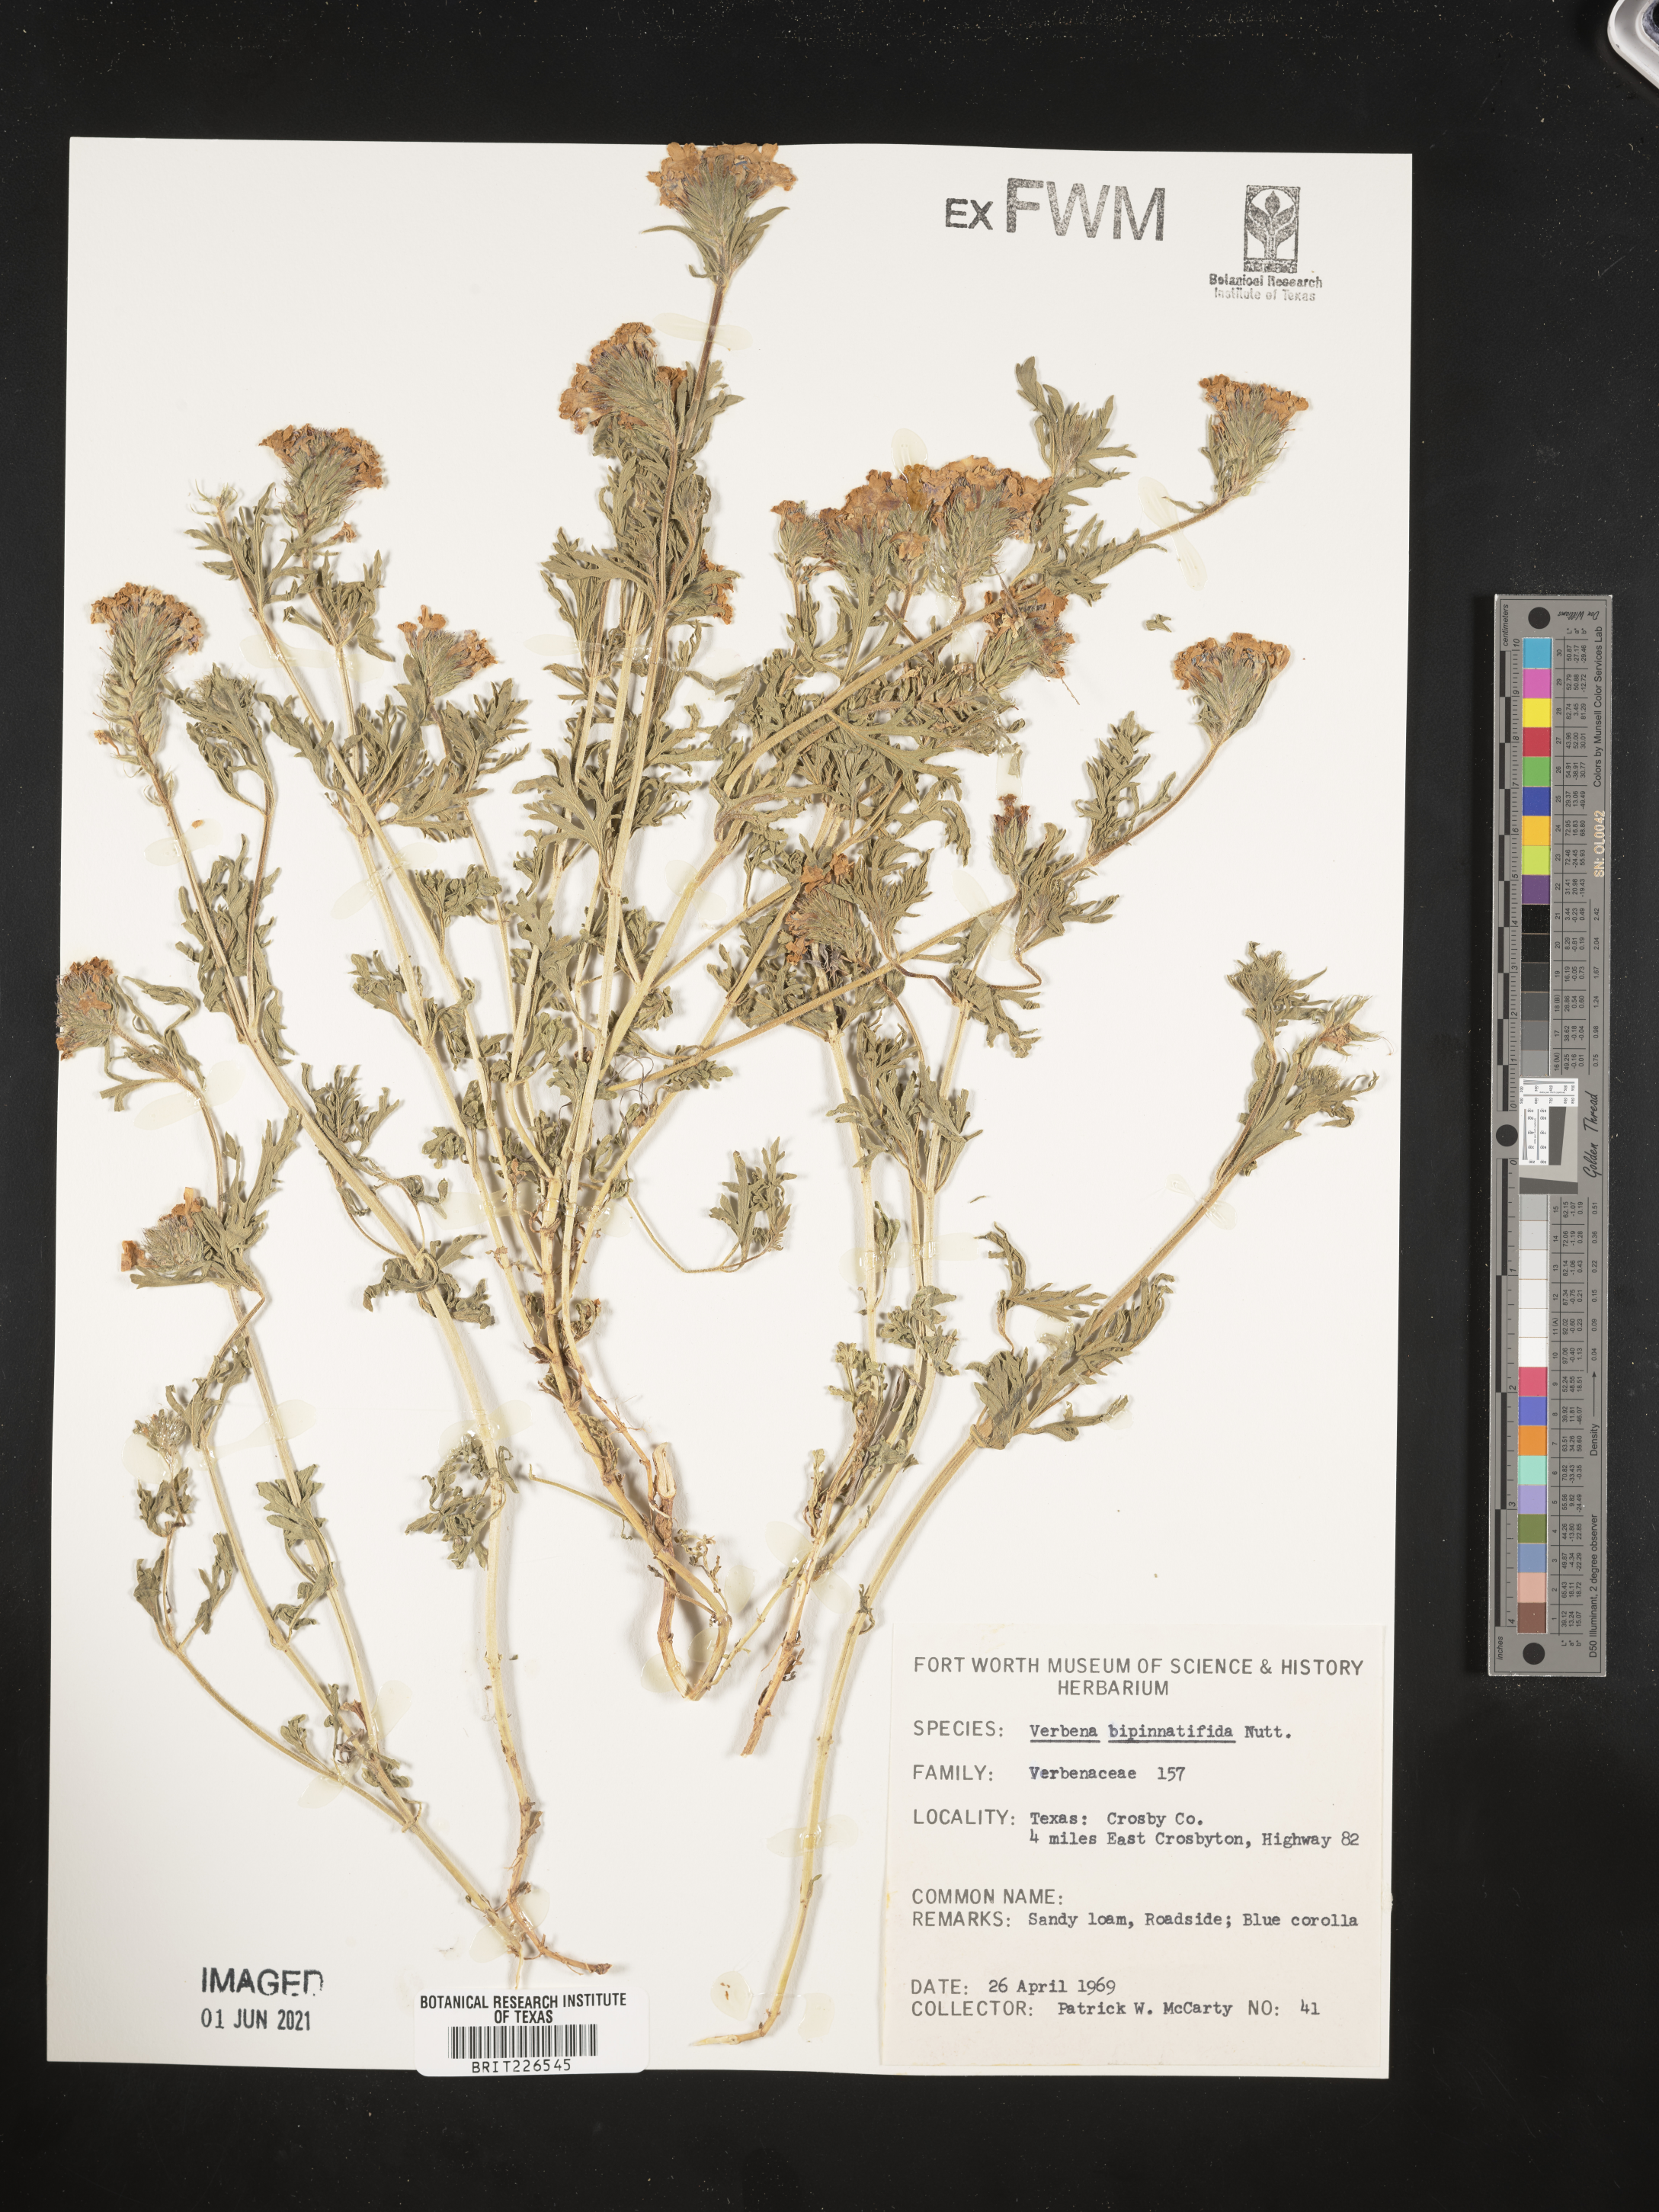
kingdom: Plantae
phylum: Tracheophyta
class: Magnoliopsida
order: Lamiales
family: Verbenaceae
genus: Verbena
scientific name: Verbena bipinnatifida
